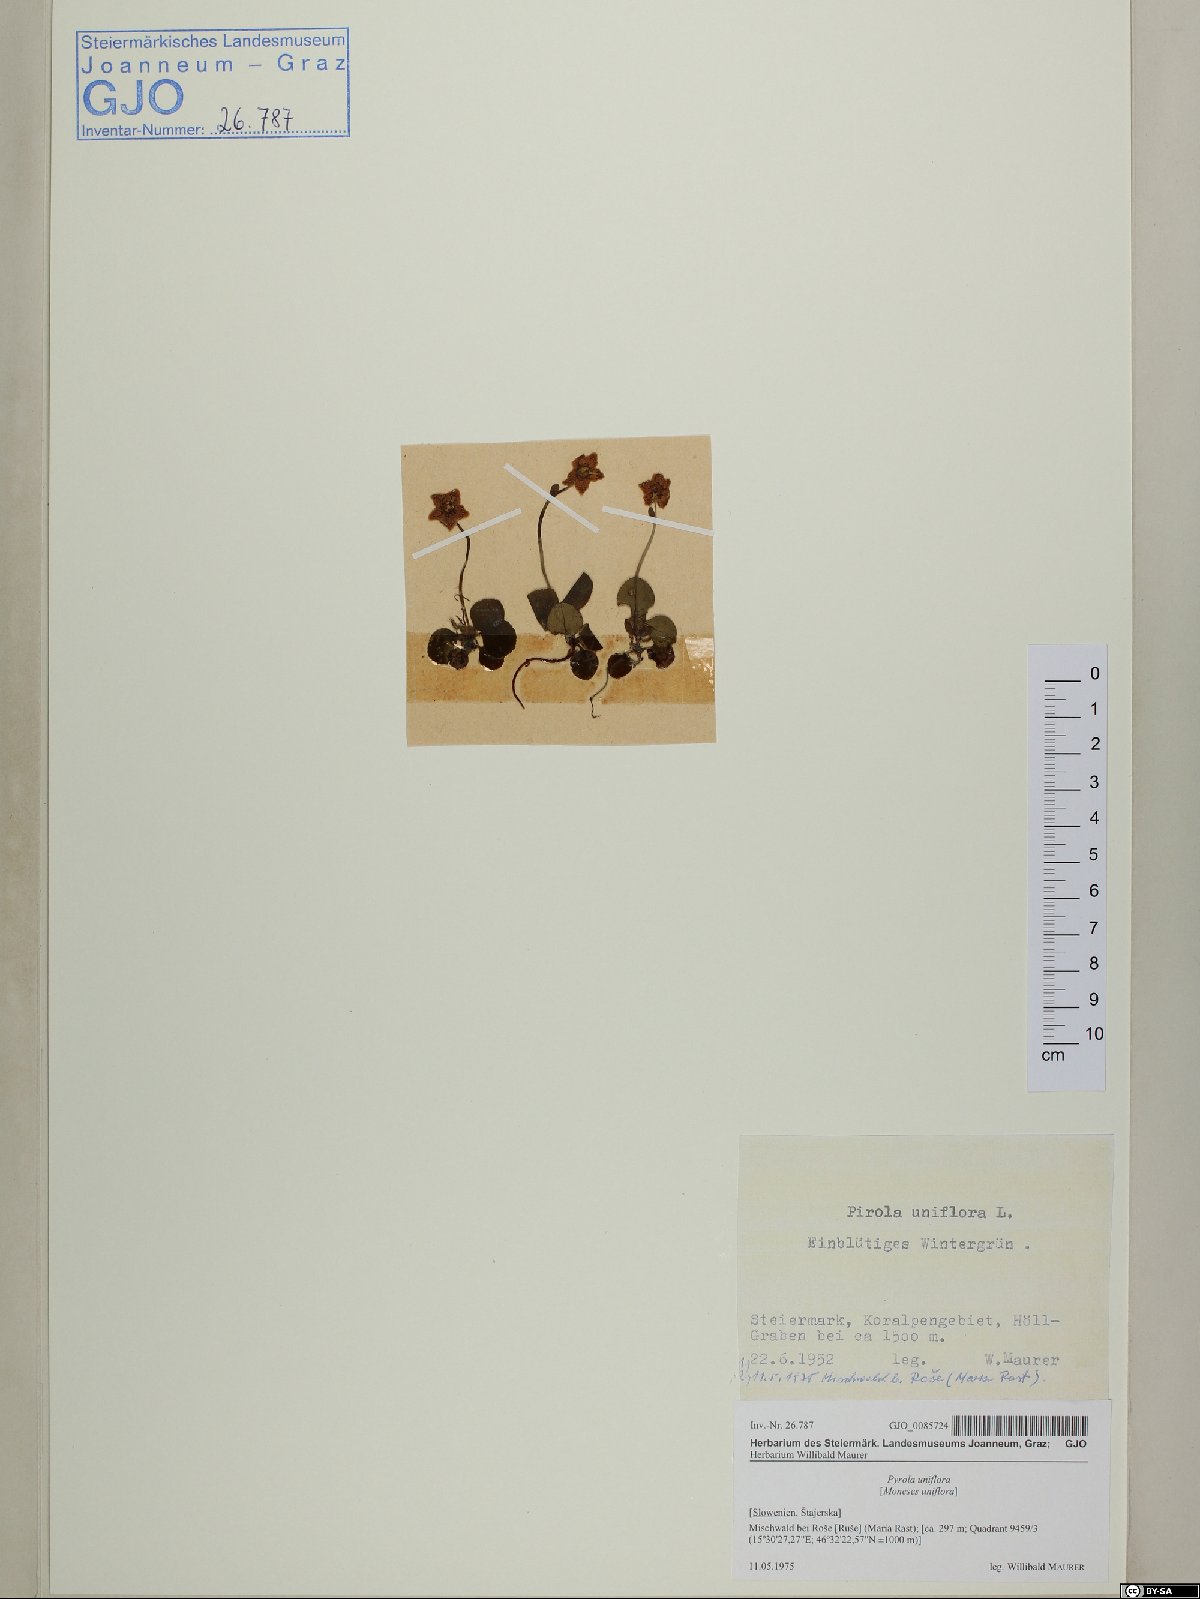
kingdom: Plantae
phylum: Tracheophyta
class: Magnoliopsida
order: Ericales
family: Ericaceae
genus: Moneses
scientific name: Moneses uniflora
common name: One-flowered wintergreen
